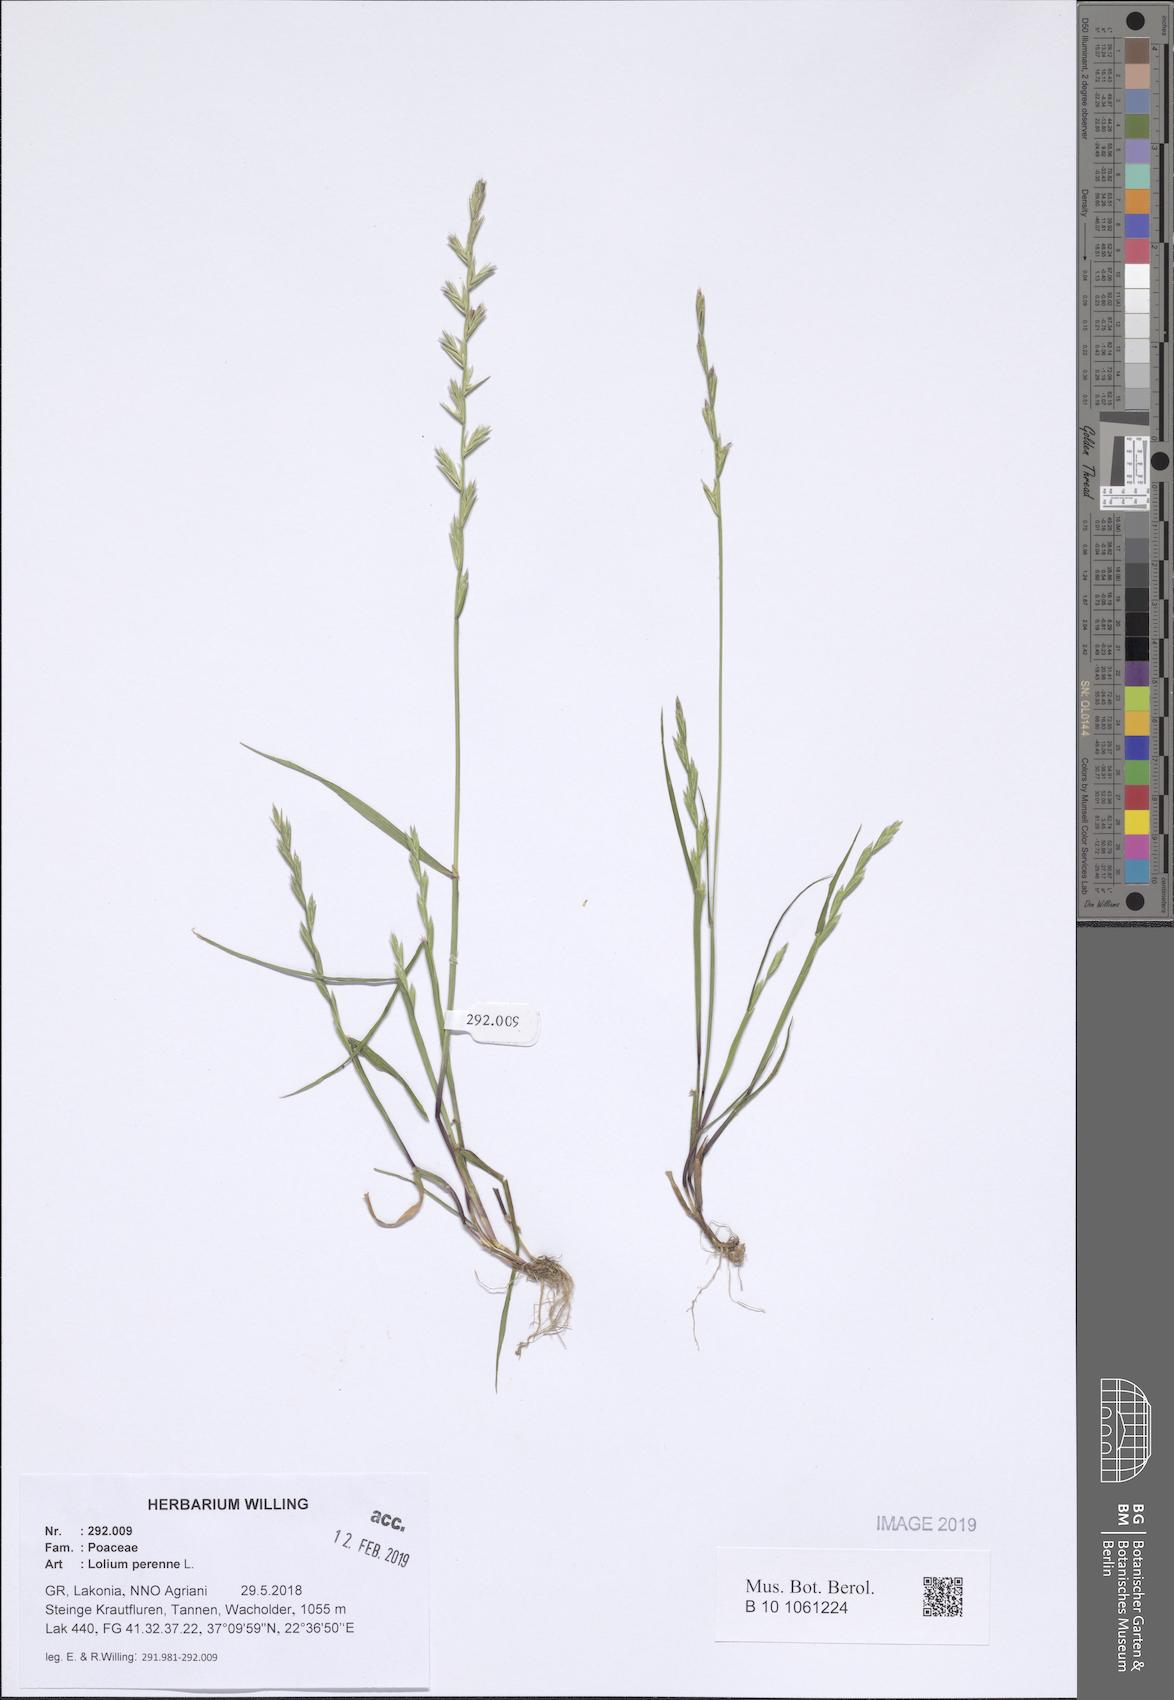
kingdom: Plantae
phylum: Tracheophyta
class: Liliopsida
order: Poales
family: Poaceae
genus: Lolium
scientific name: Lolium perenne
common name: Perennial ryegrass
